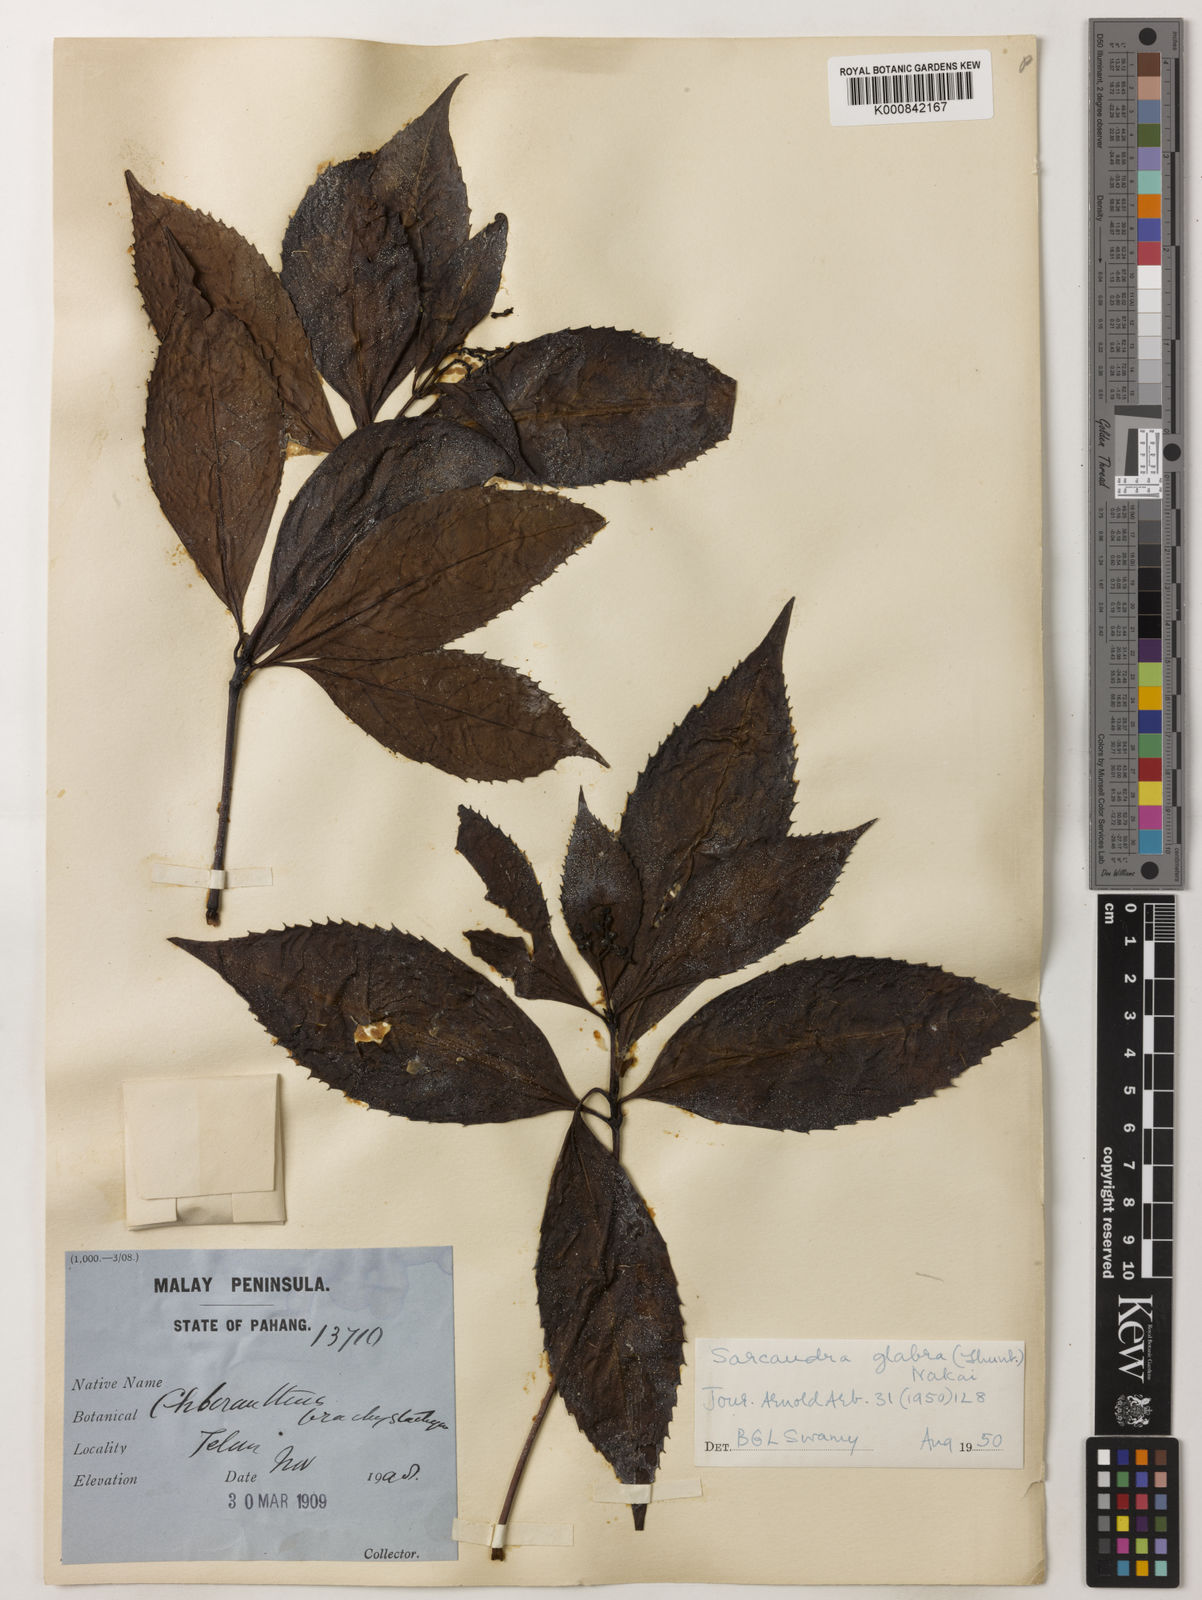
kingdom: Plantae
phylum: Tracheophyta
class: Magnoliopsida
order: Chloranthales
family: Chloranthaceae
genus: Sarcandra
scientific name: Sarcandra glabra
